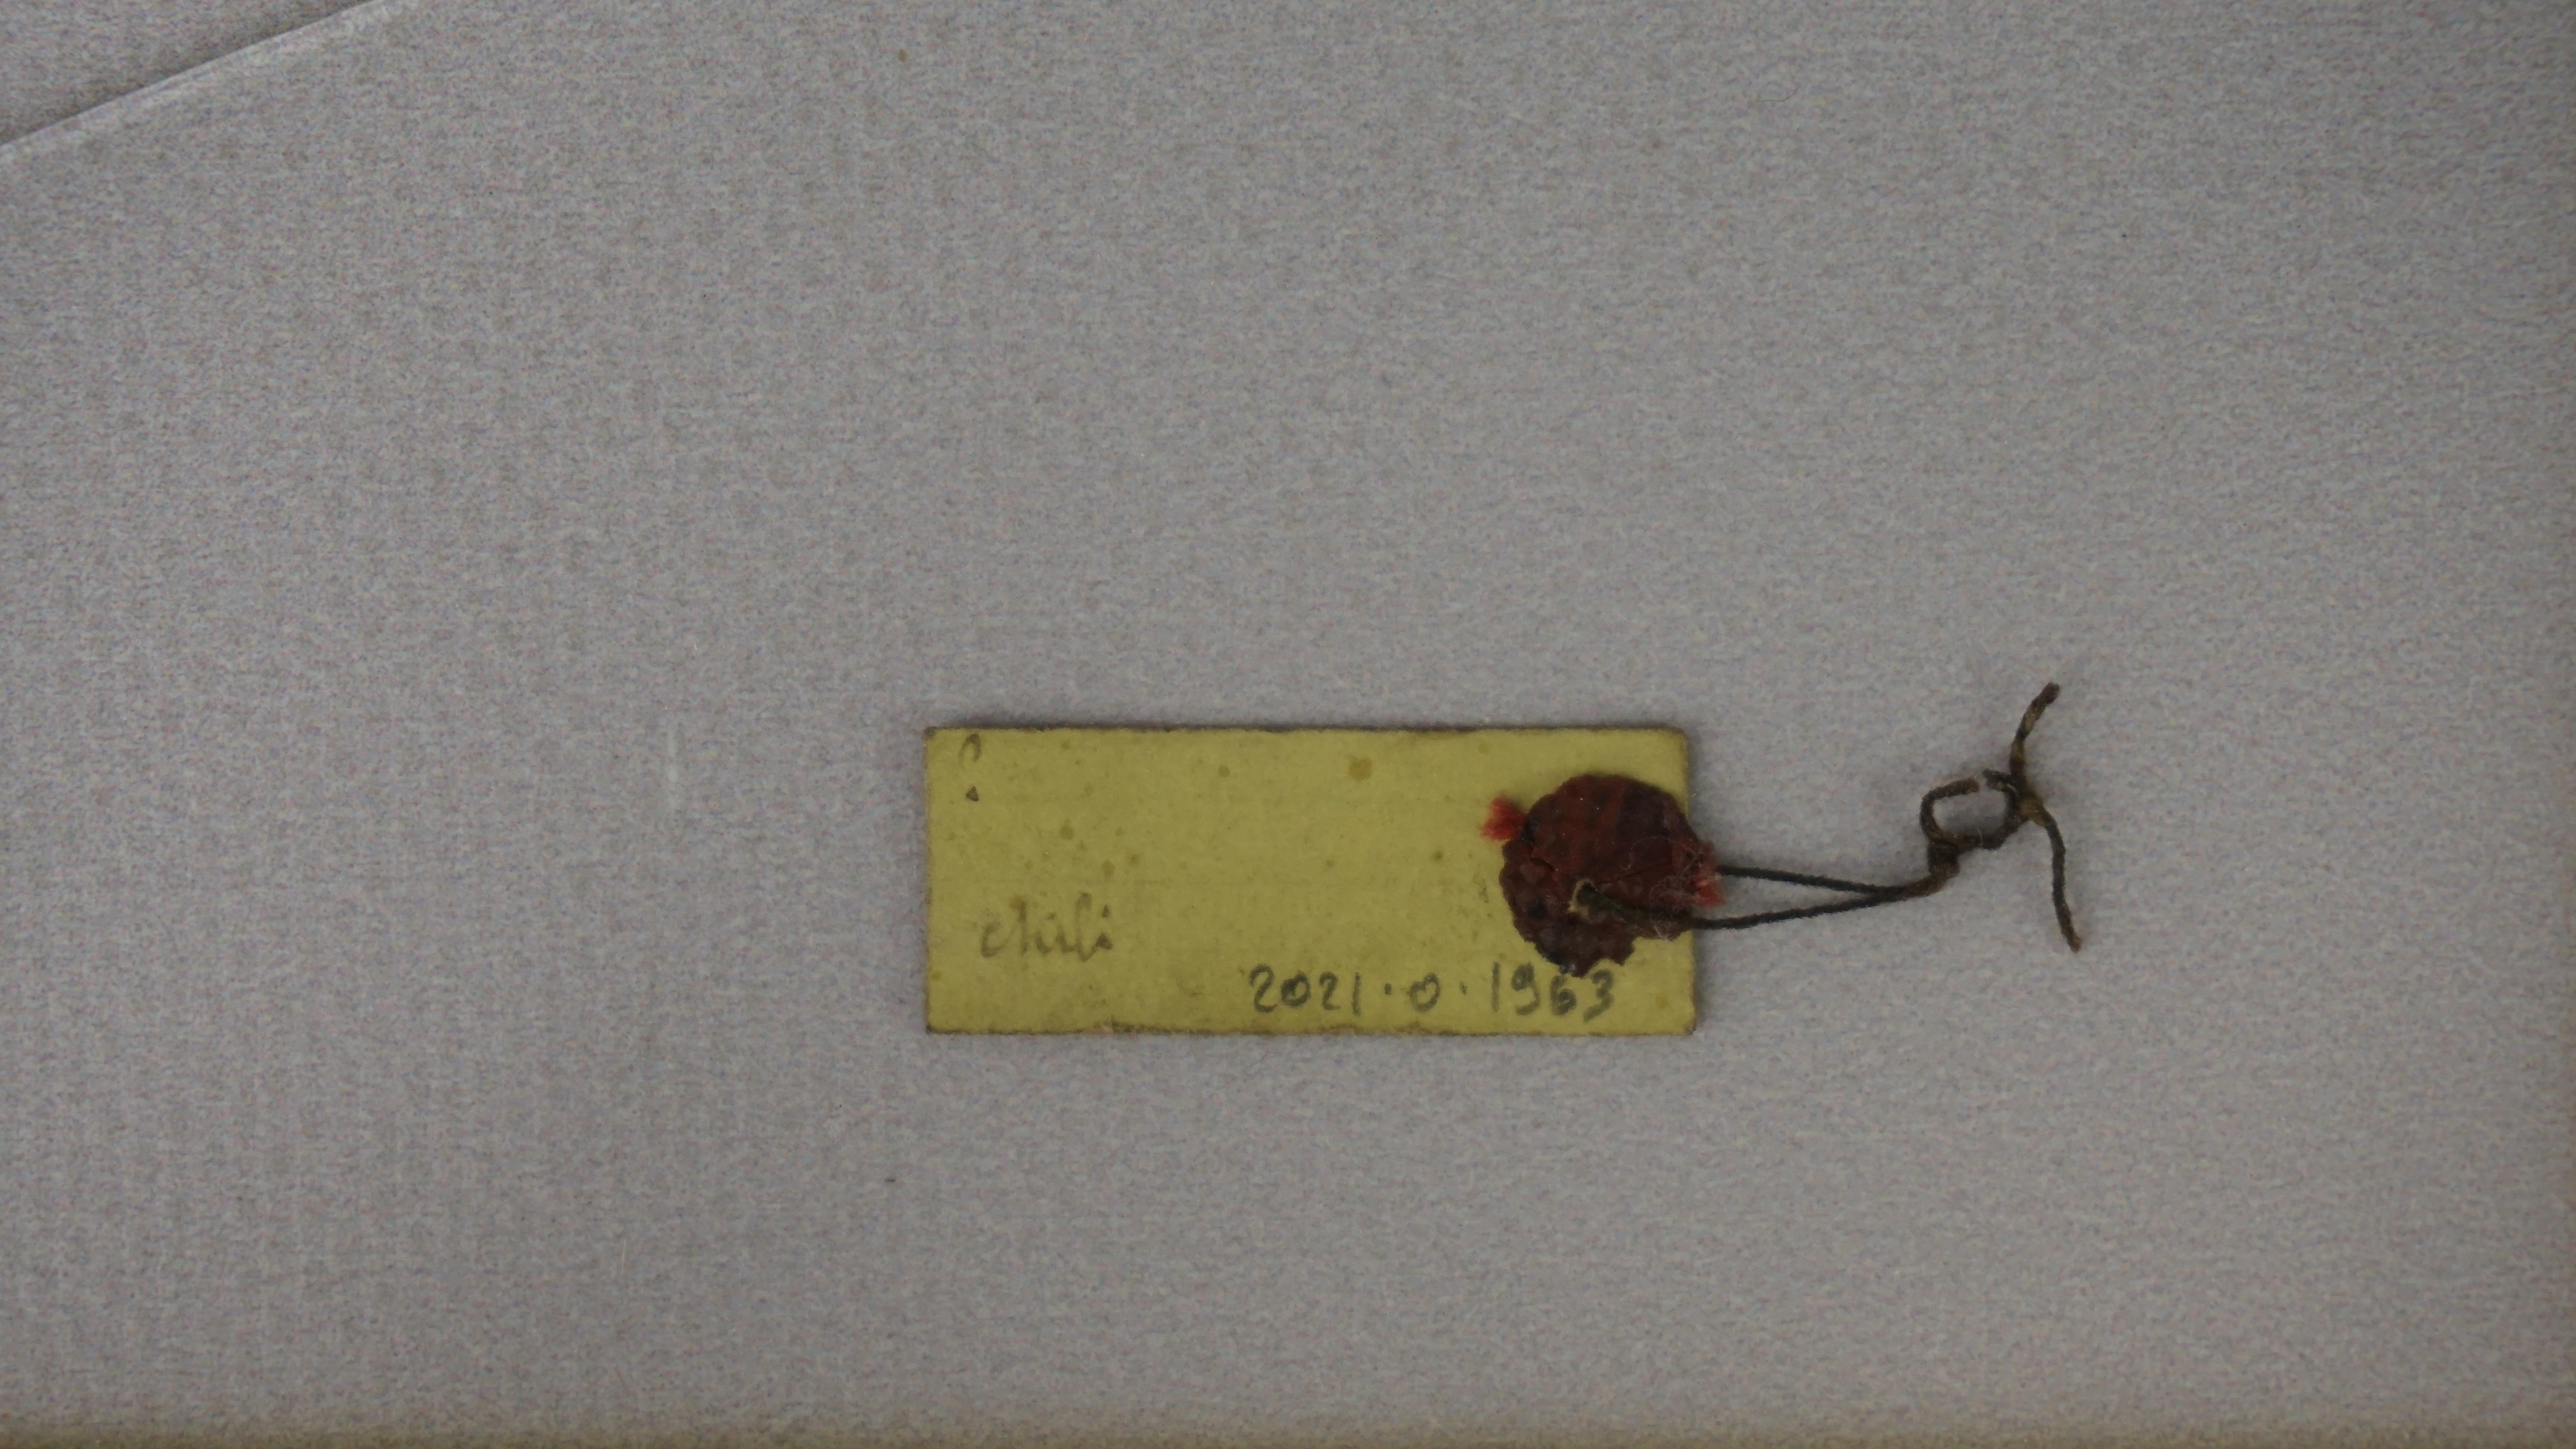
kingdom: Animalia
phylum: Chordata
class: Aves
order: Passeriformes
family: Mimidae
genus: Mimus
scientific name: Mimus polyglottos
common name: Northern mockingbird
